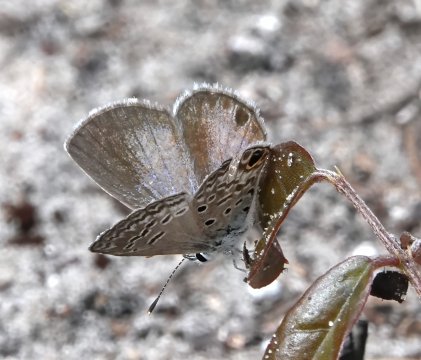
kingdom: Animalia
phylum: Arthropoda
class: Insecta
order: Lepidoptera
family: Lycaenidae
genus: Hemiargus
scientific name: Hemiargus ceraunus
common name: Ceraunus Blue
